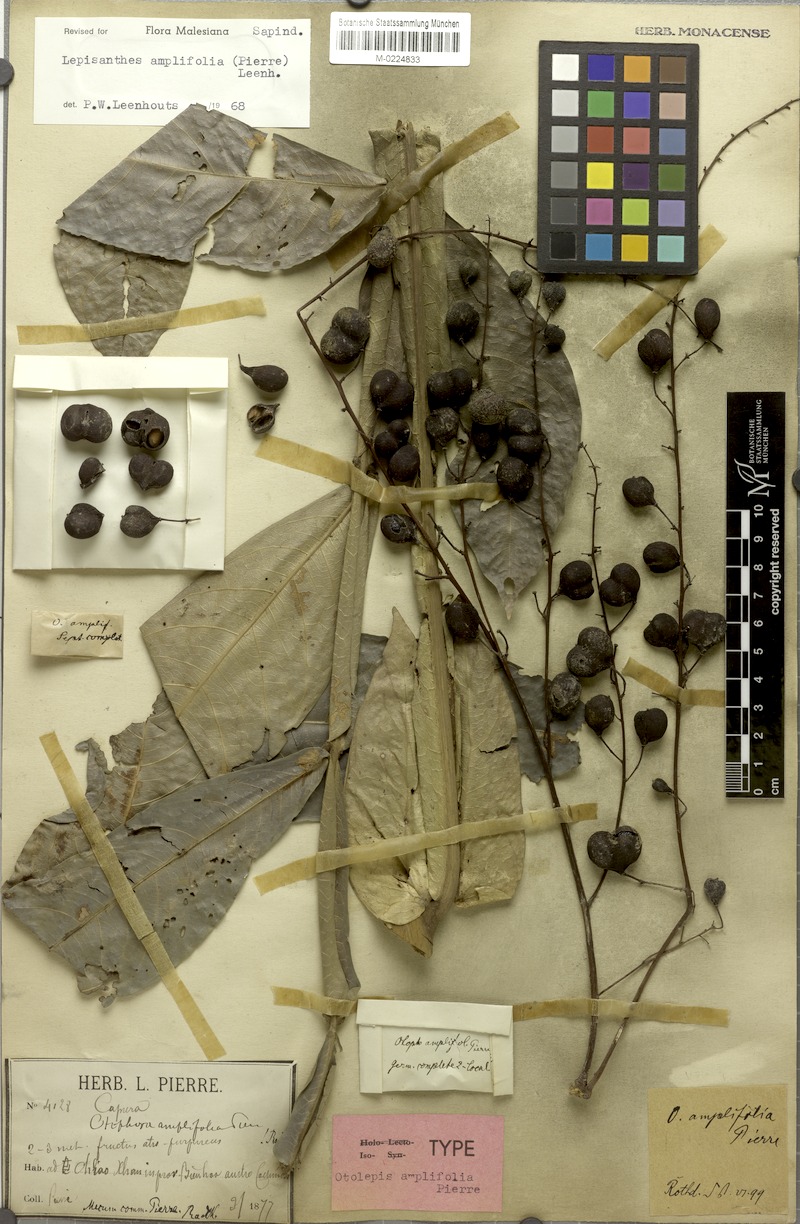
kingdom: Plantae
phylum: Tracheophyta
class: Magnoliopsida
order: Sapindales
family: Sapindaceae
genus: Lepisanthes
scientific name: Lepisanthes amplifolia
